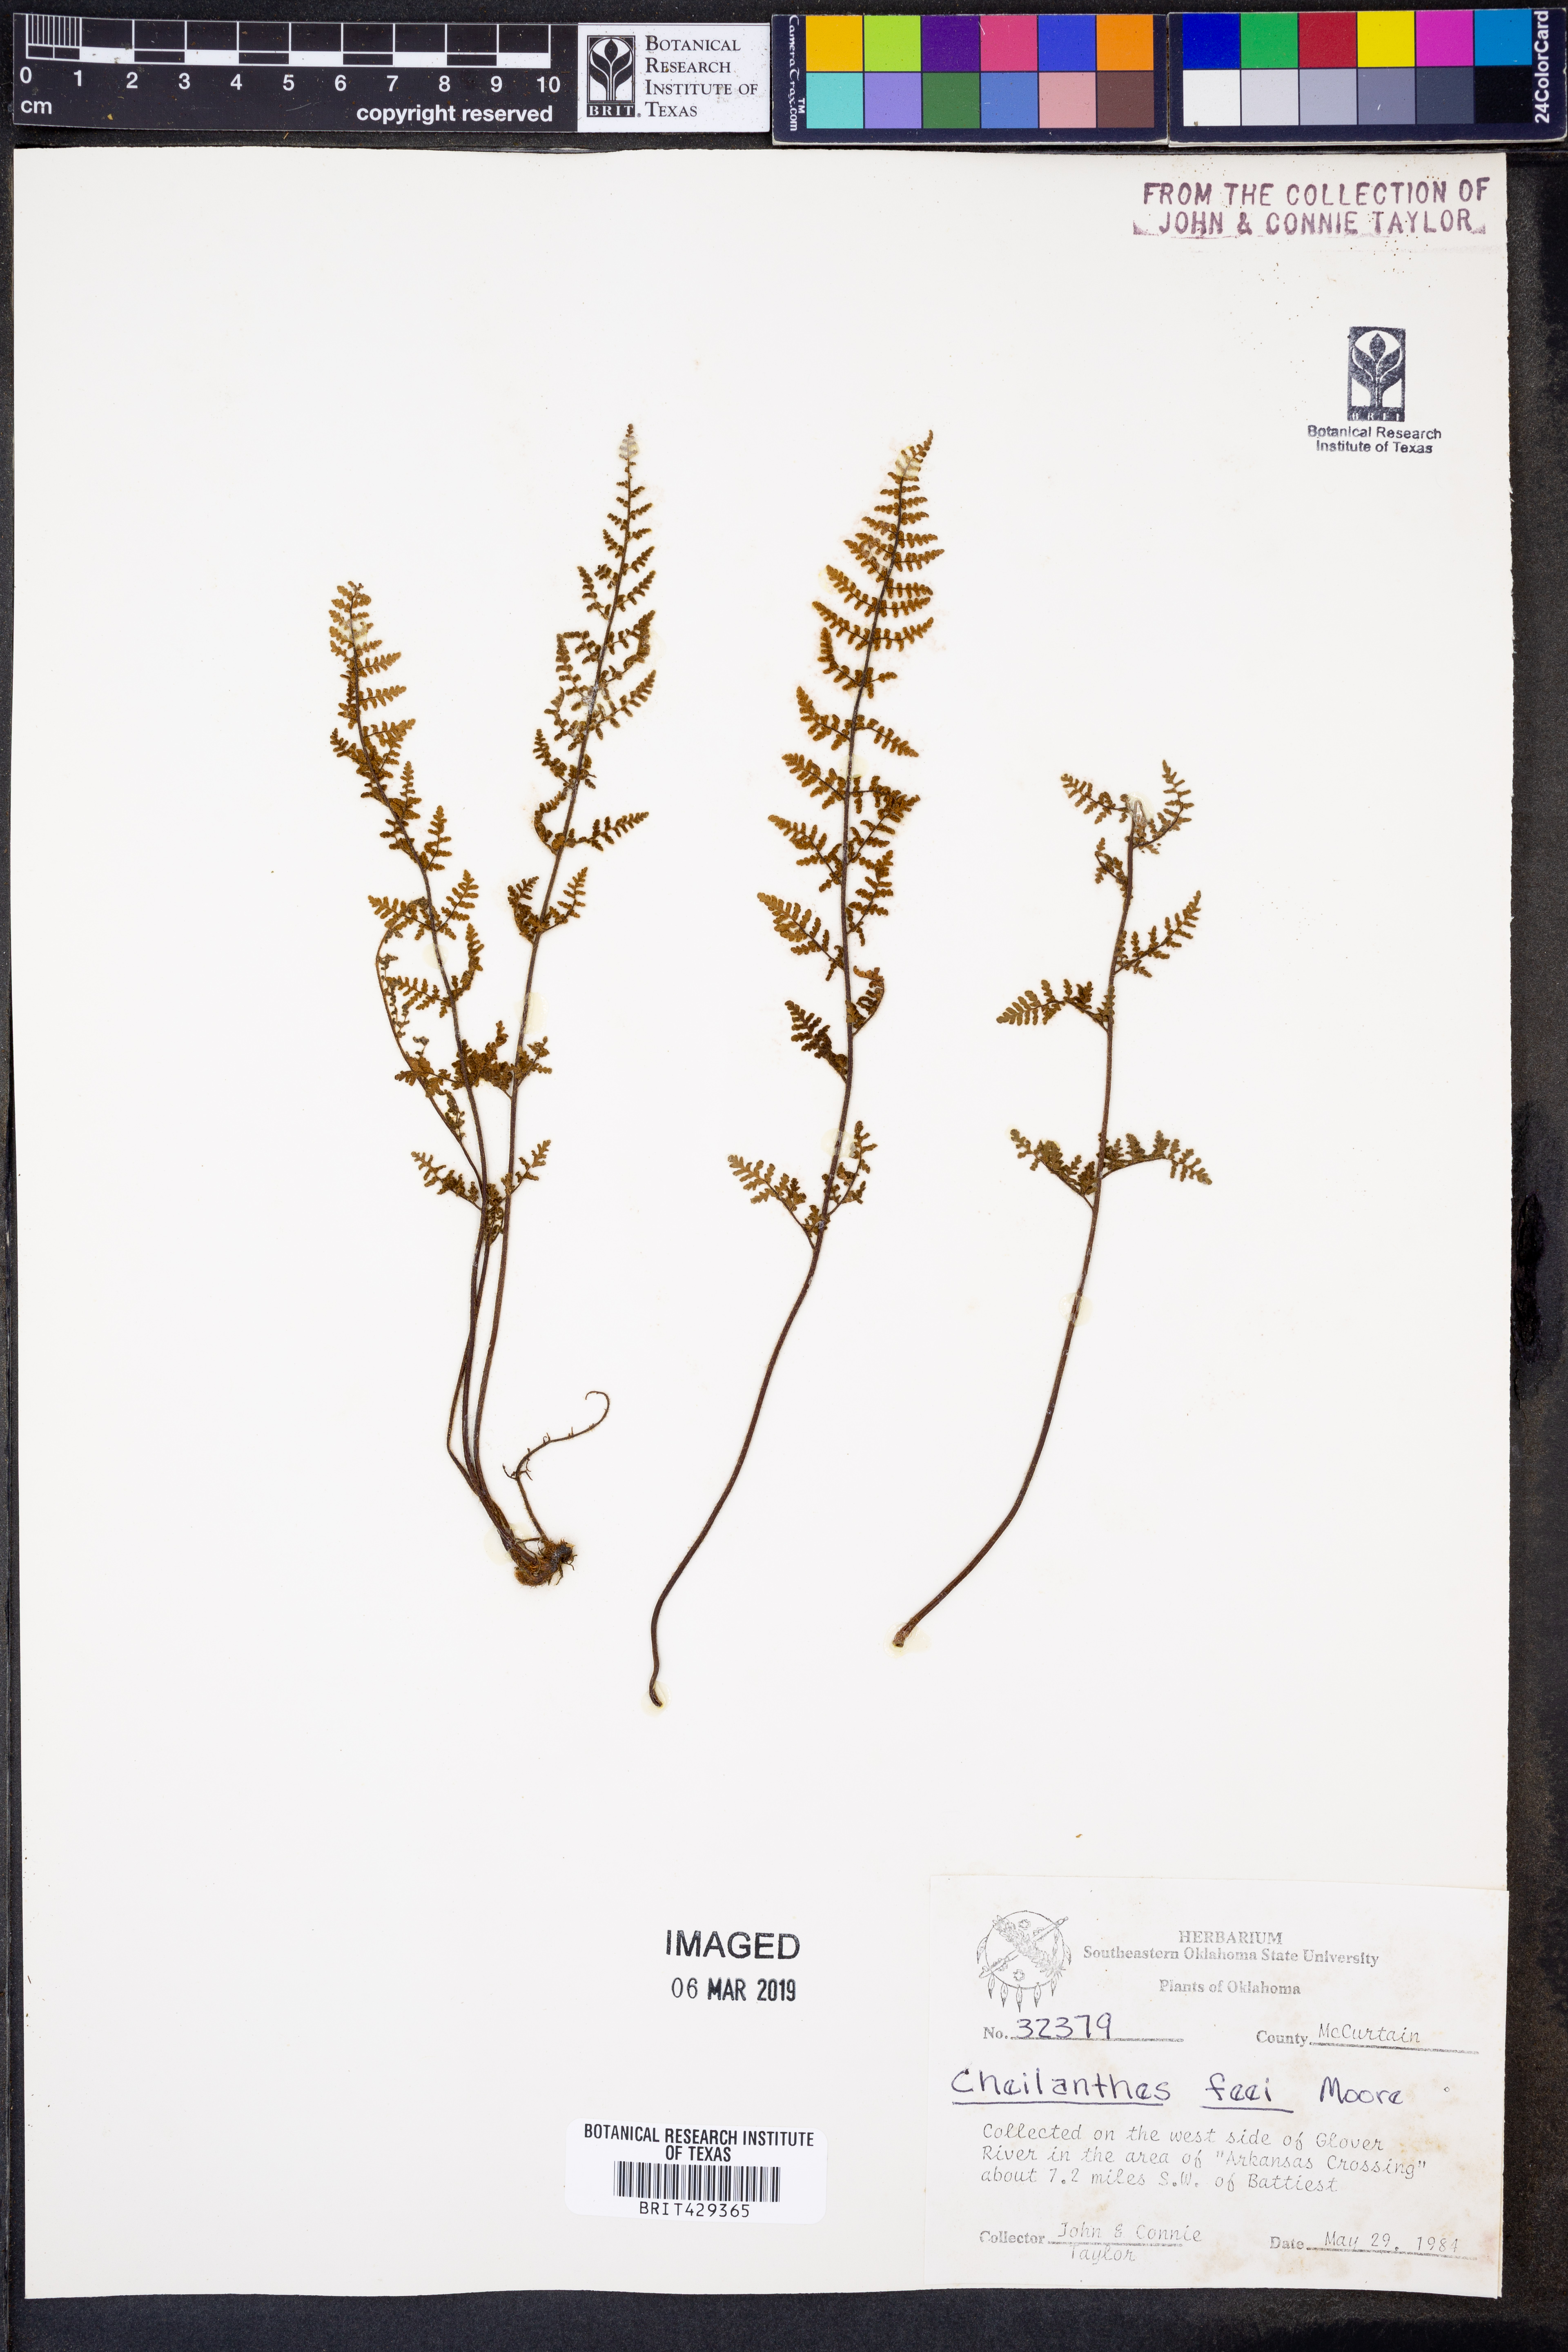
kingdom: Plantae
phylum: Tracheophyta
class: Polypodiopsida
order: Polypodiales
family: Pteridaceae
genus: Myriopteris
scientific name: Myriopteris gracilis
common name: Fee's lip fern
